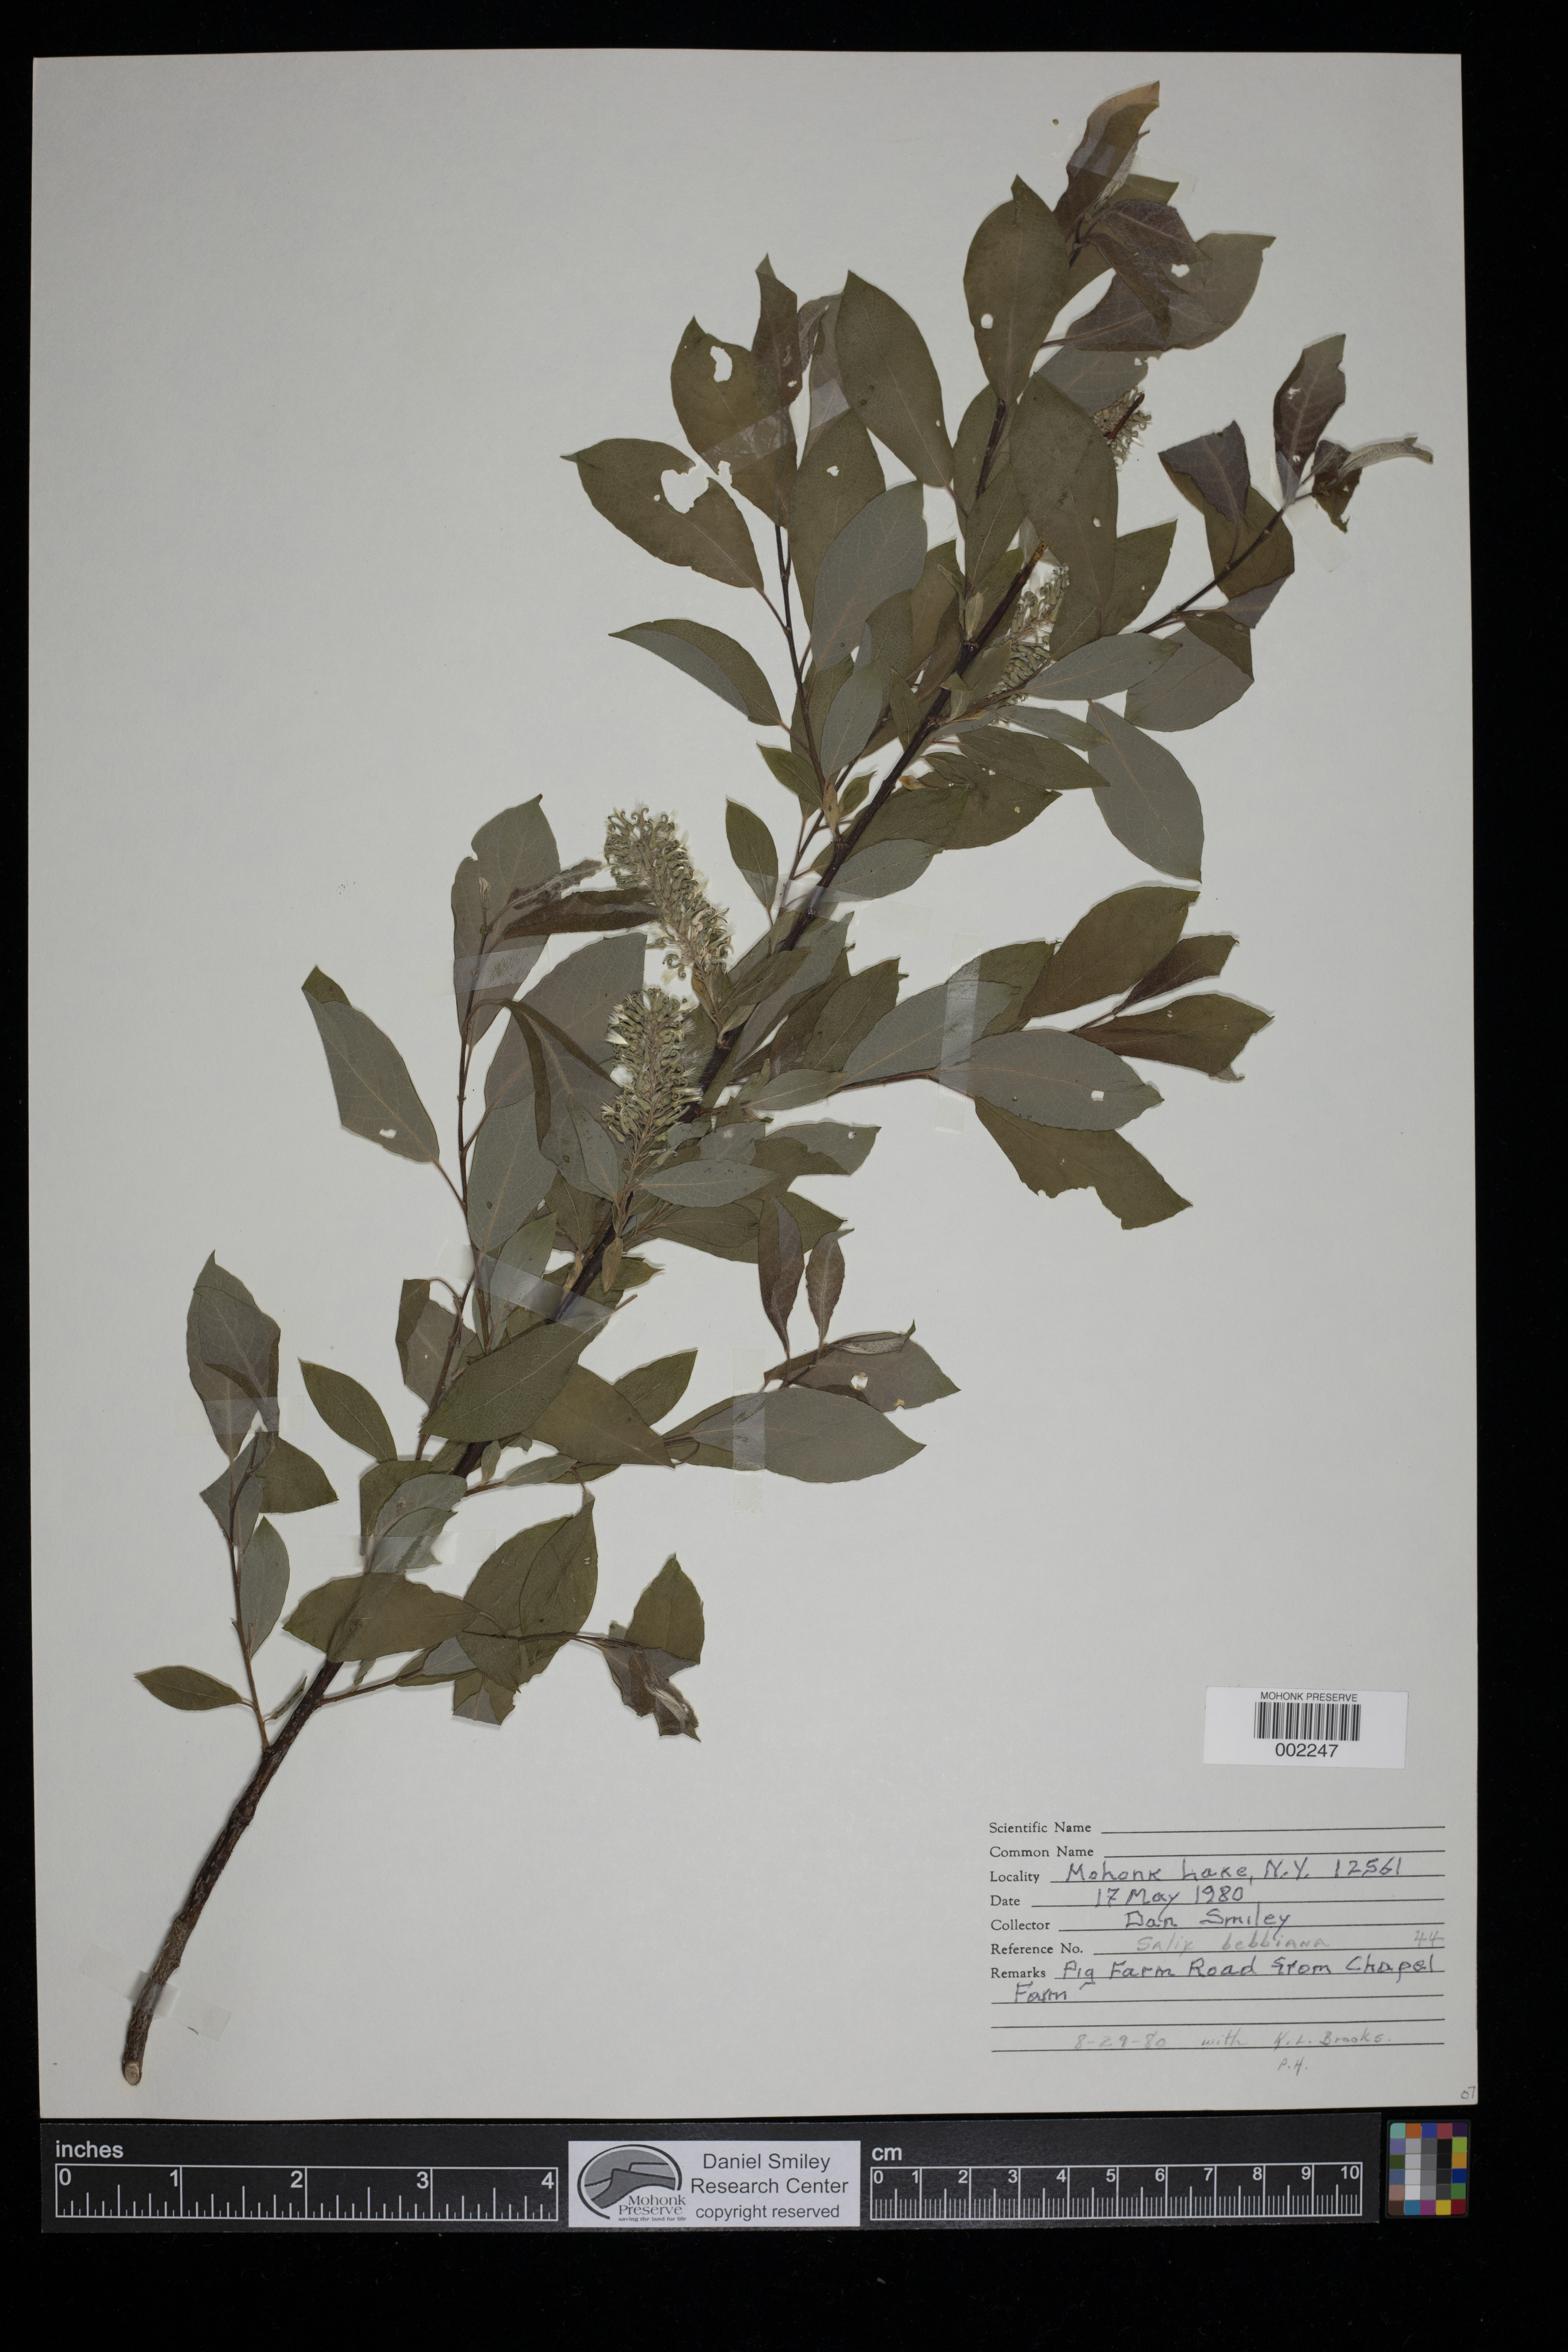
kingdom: Plantae
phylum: Tracheophyta
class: Magnoliopsida
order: Malpighiales
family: Salicaceae
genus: Salix
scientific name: Salix bebbiana
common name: Bebb's willow
